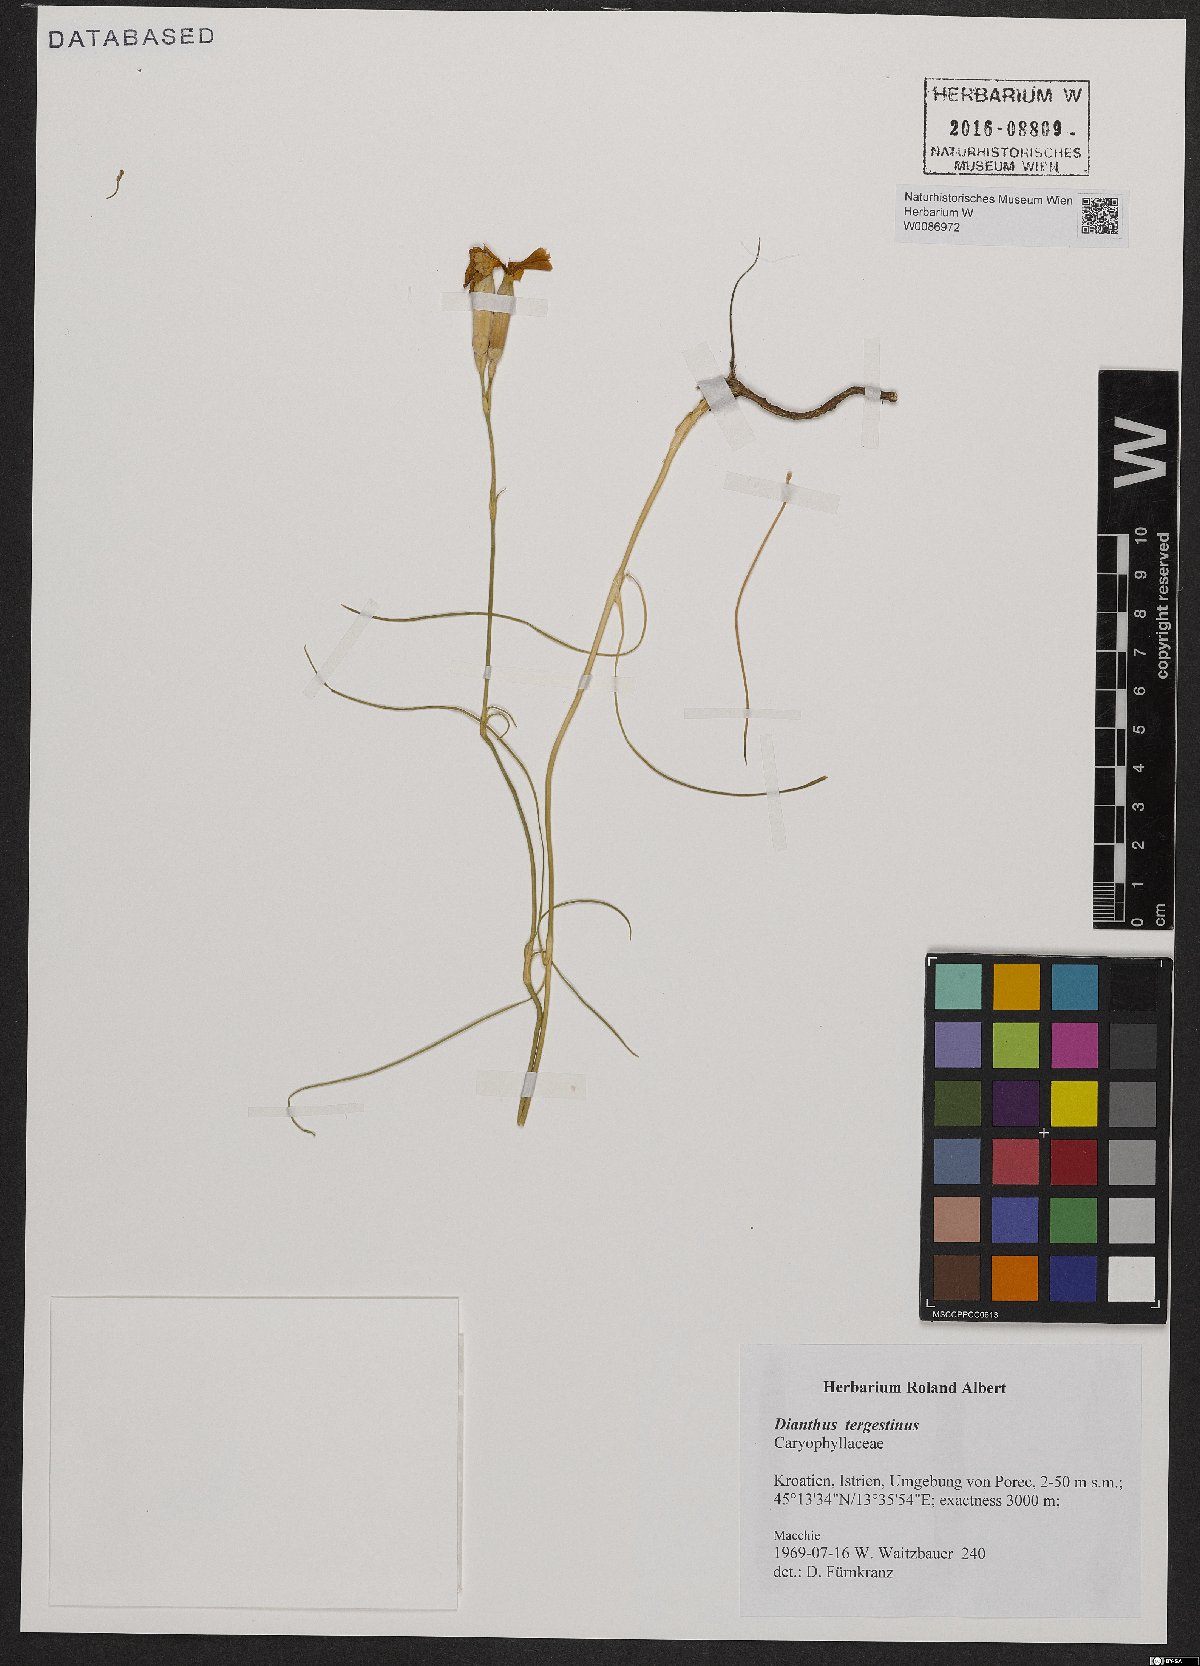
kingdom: Plantae
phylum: Tracheophyta
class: Magnoliopsida
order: Caryophyllales
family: Caryophyllaceae
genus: Dianthus
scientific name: Dianthus sylvestris
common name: Wood pink
